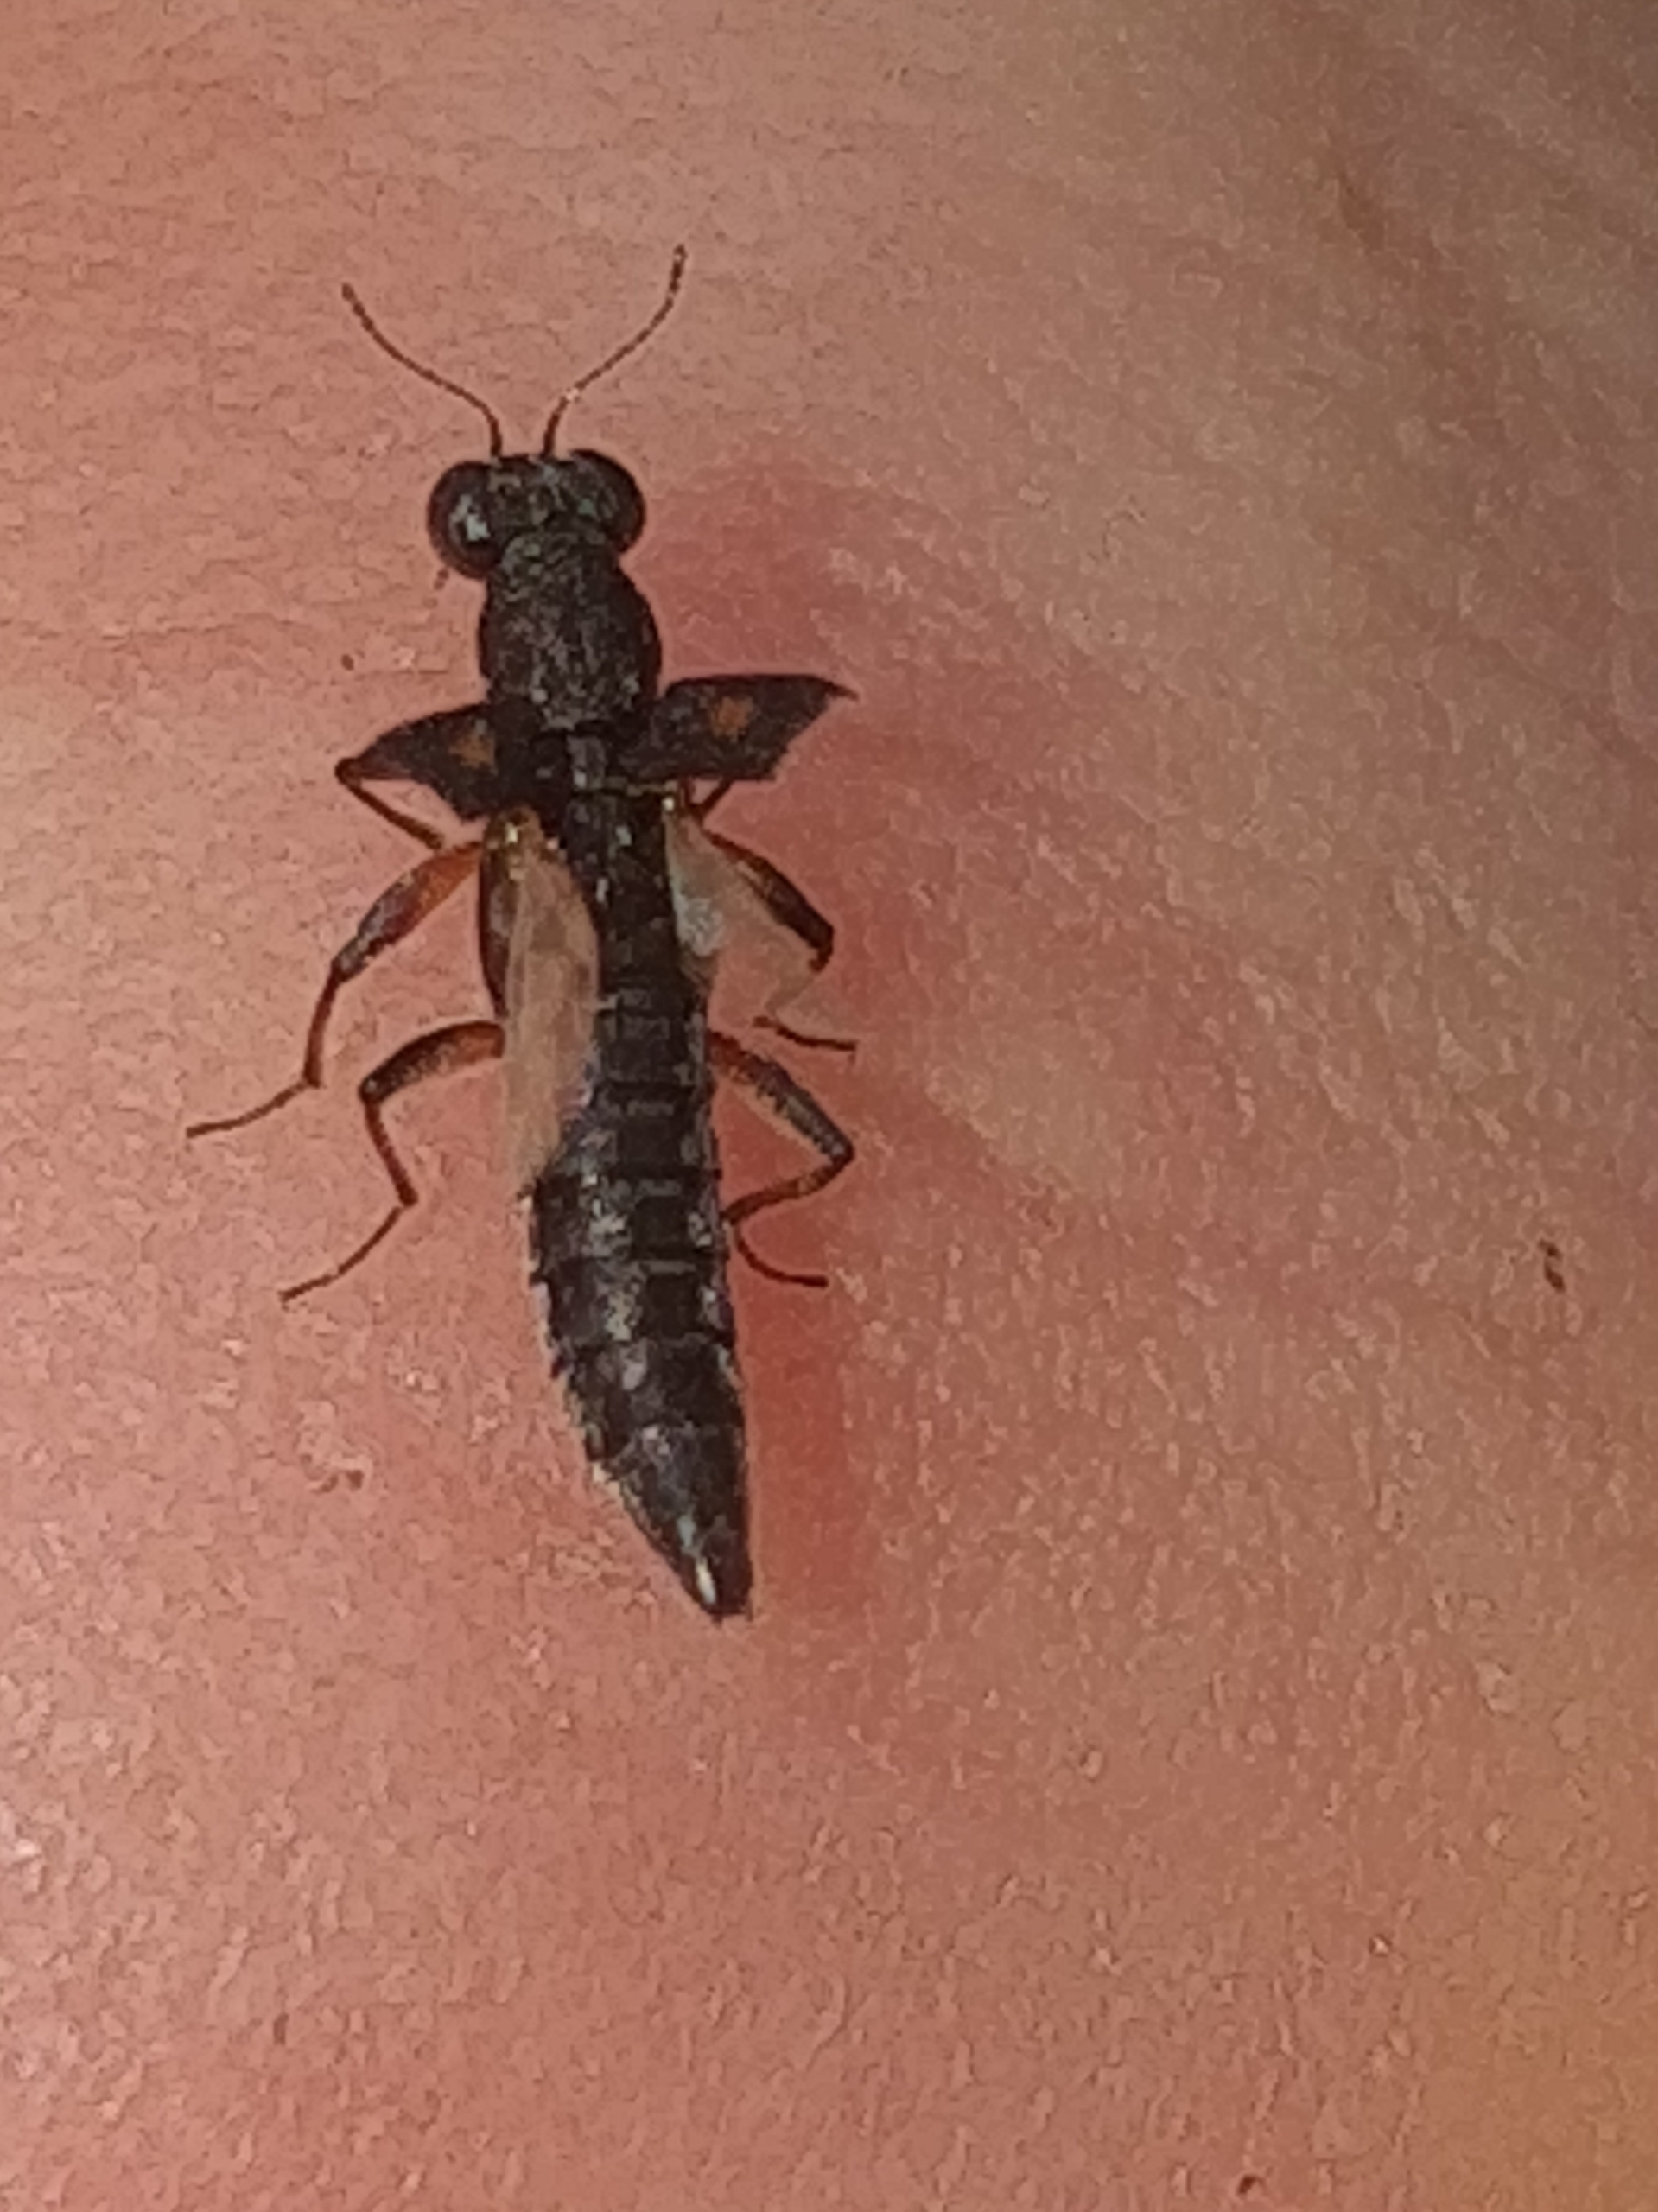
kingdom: Animalia
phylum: Arthropoda
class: Insecta
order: Coleoptera
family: Staphylinidae
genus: Stenus
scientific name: Stenus bimaculatus
